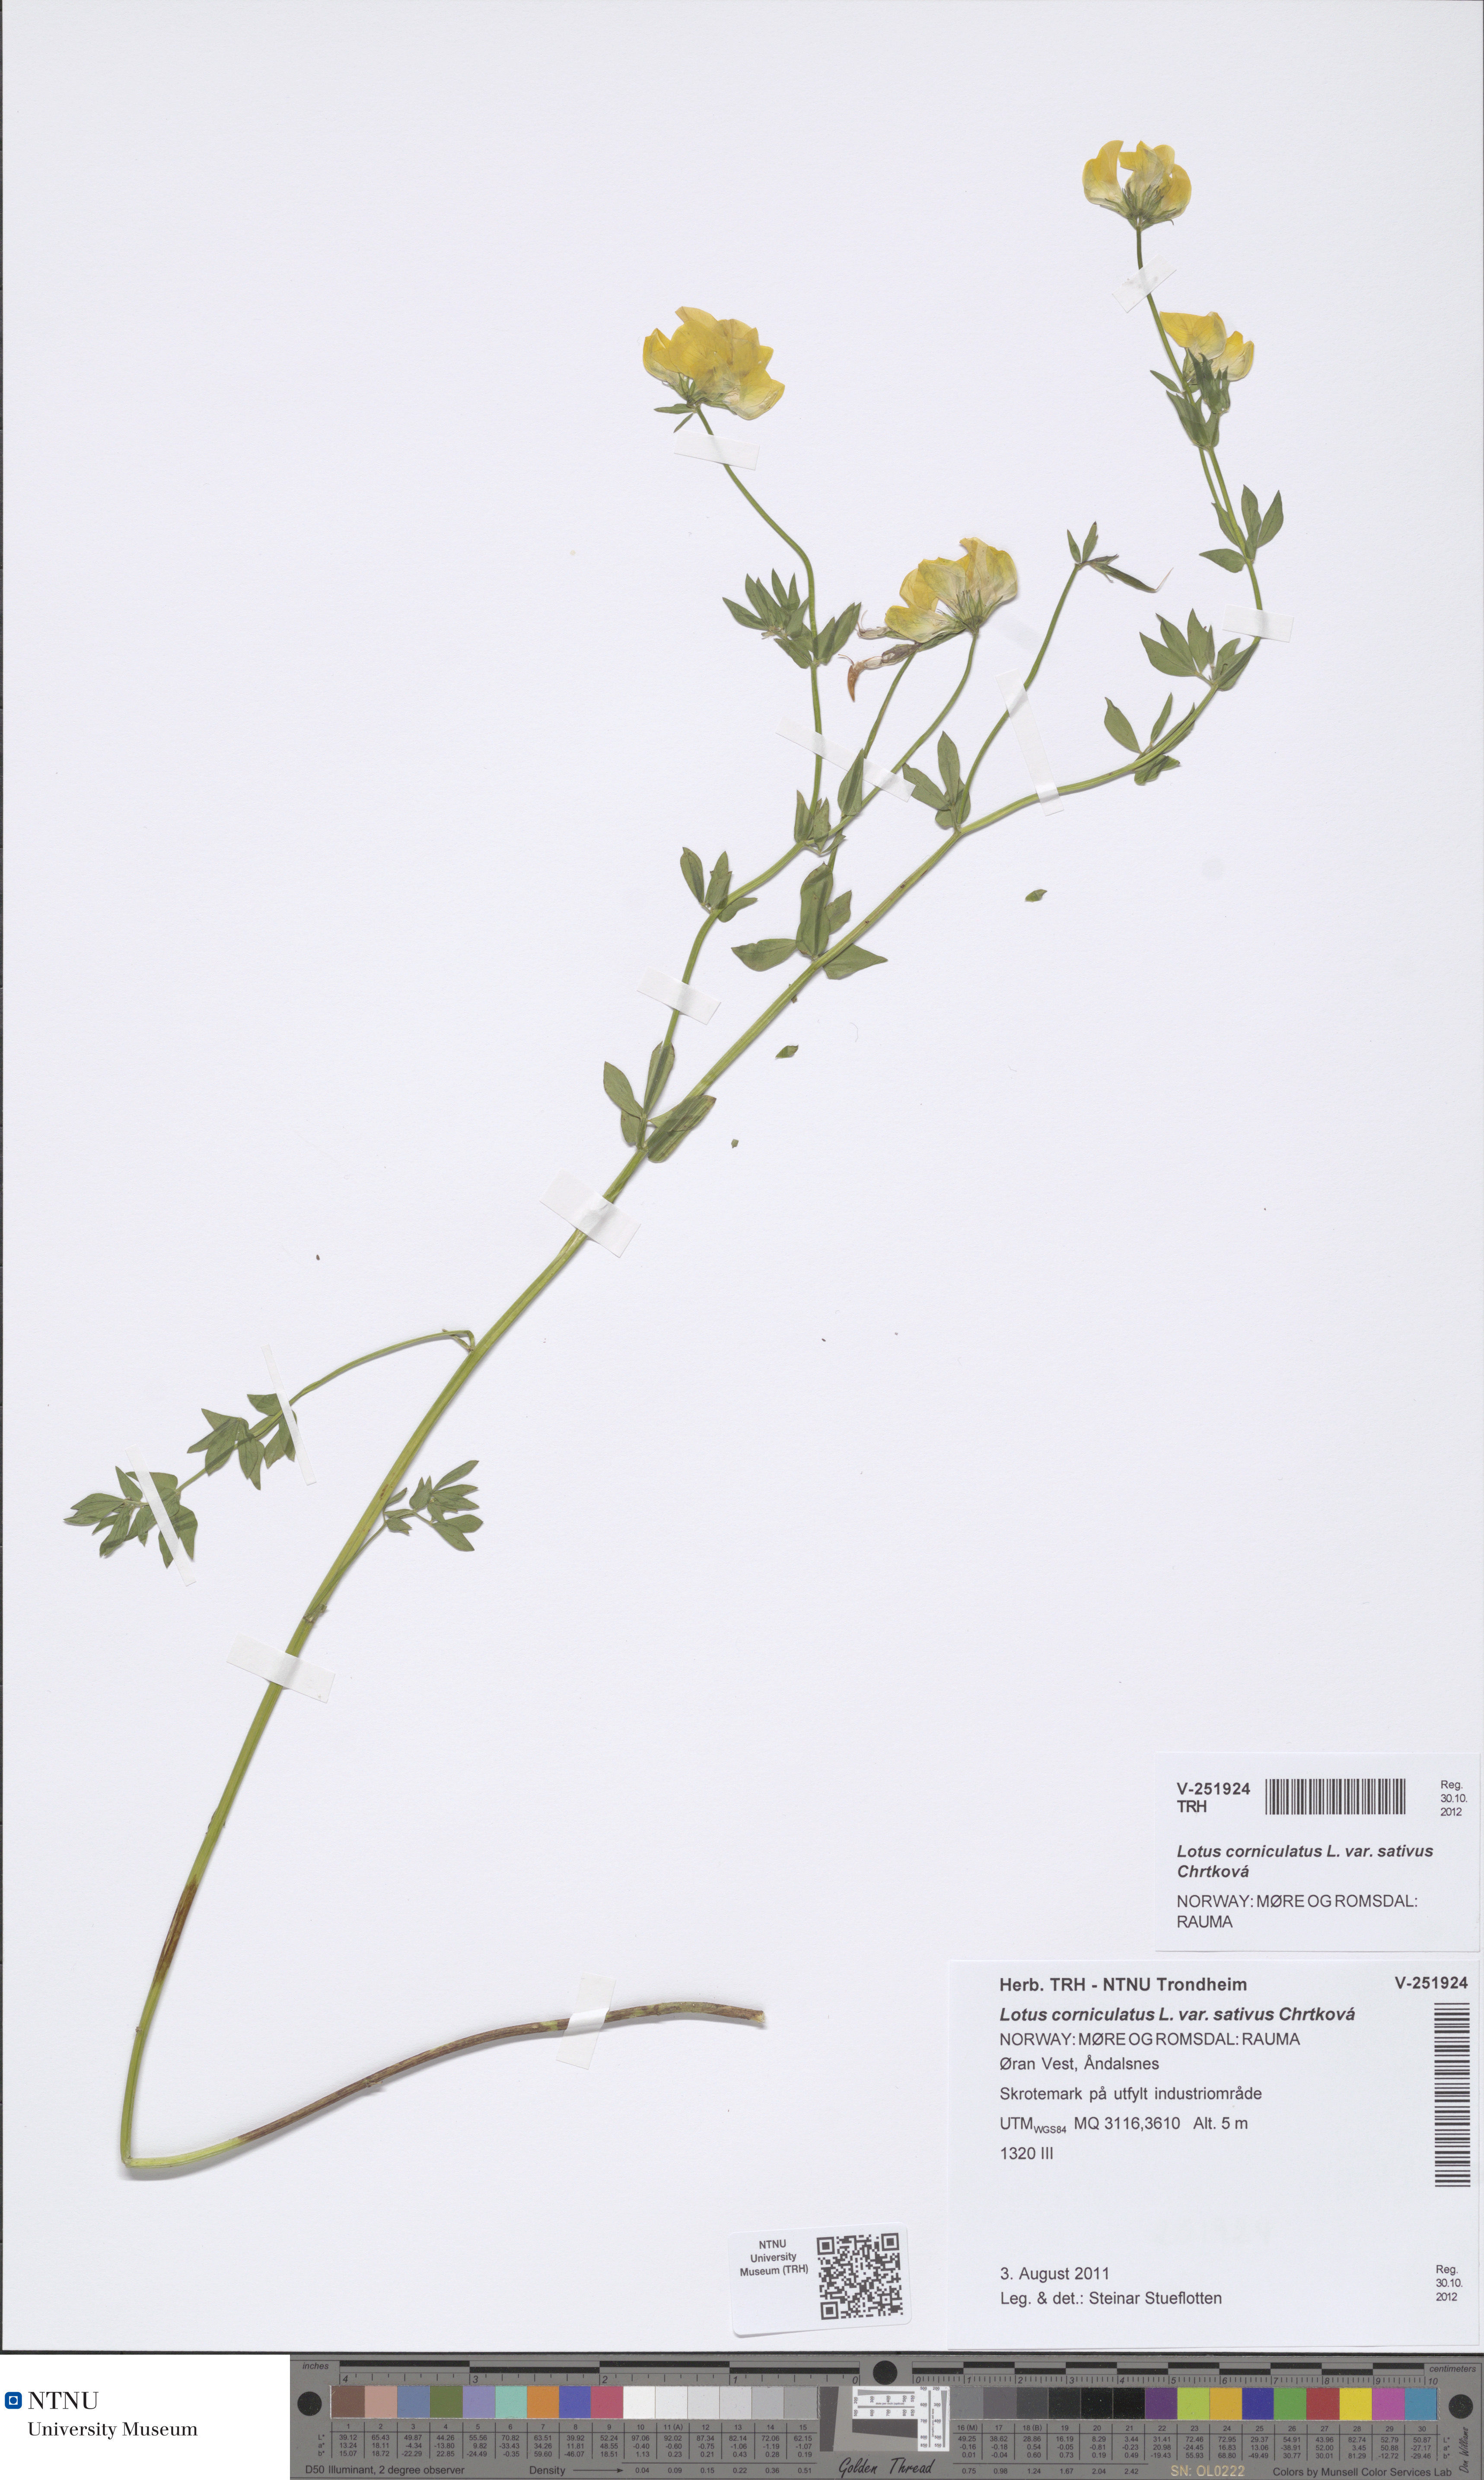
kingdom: Plantae
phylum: Tracheophyta
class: Magnoliopsida
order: Fabales
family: Fabaceae
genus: Lotus
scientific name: Lotus corniculatus
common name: Common bird's-foot-trefoil
